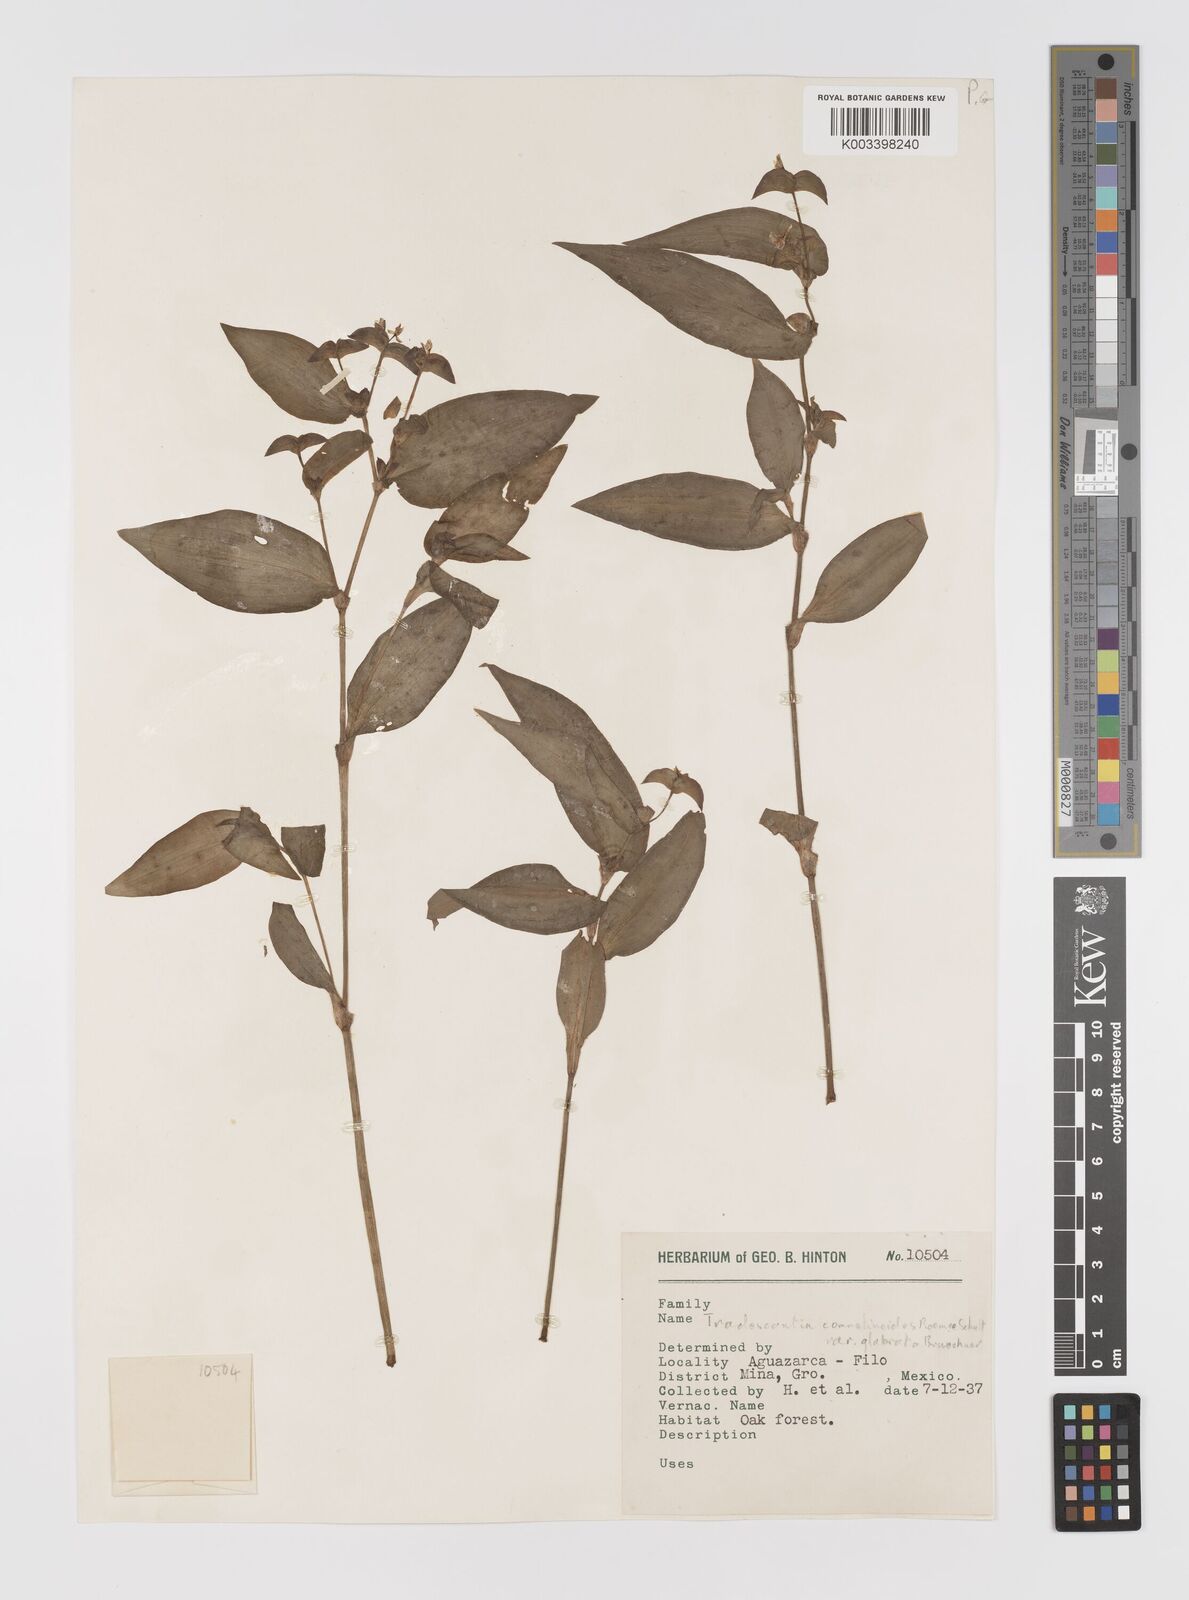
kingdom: Plantae
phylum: Tracheophyta
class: Liliopsida
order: Commelinales
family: Commelinaceae
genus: Tradescantia
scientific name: Tradescantia commelinoides
